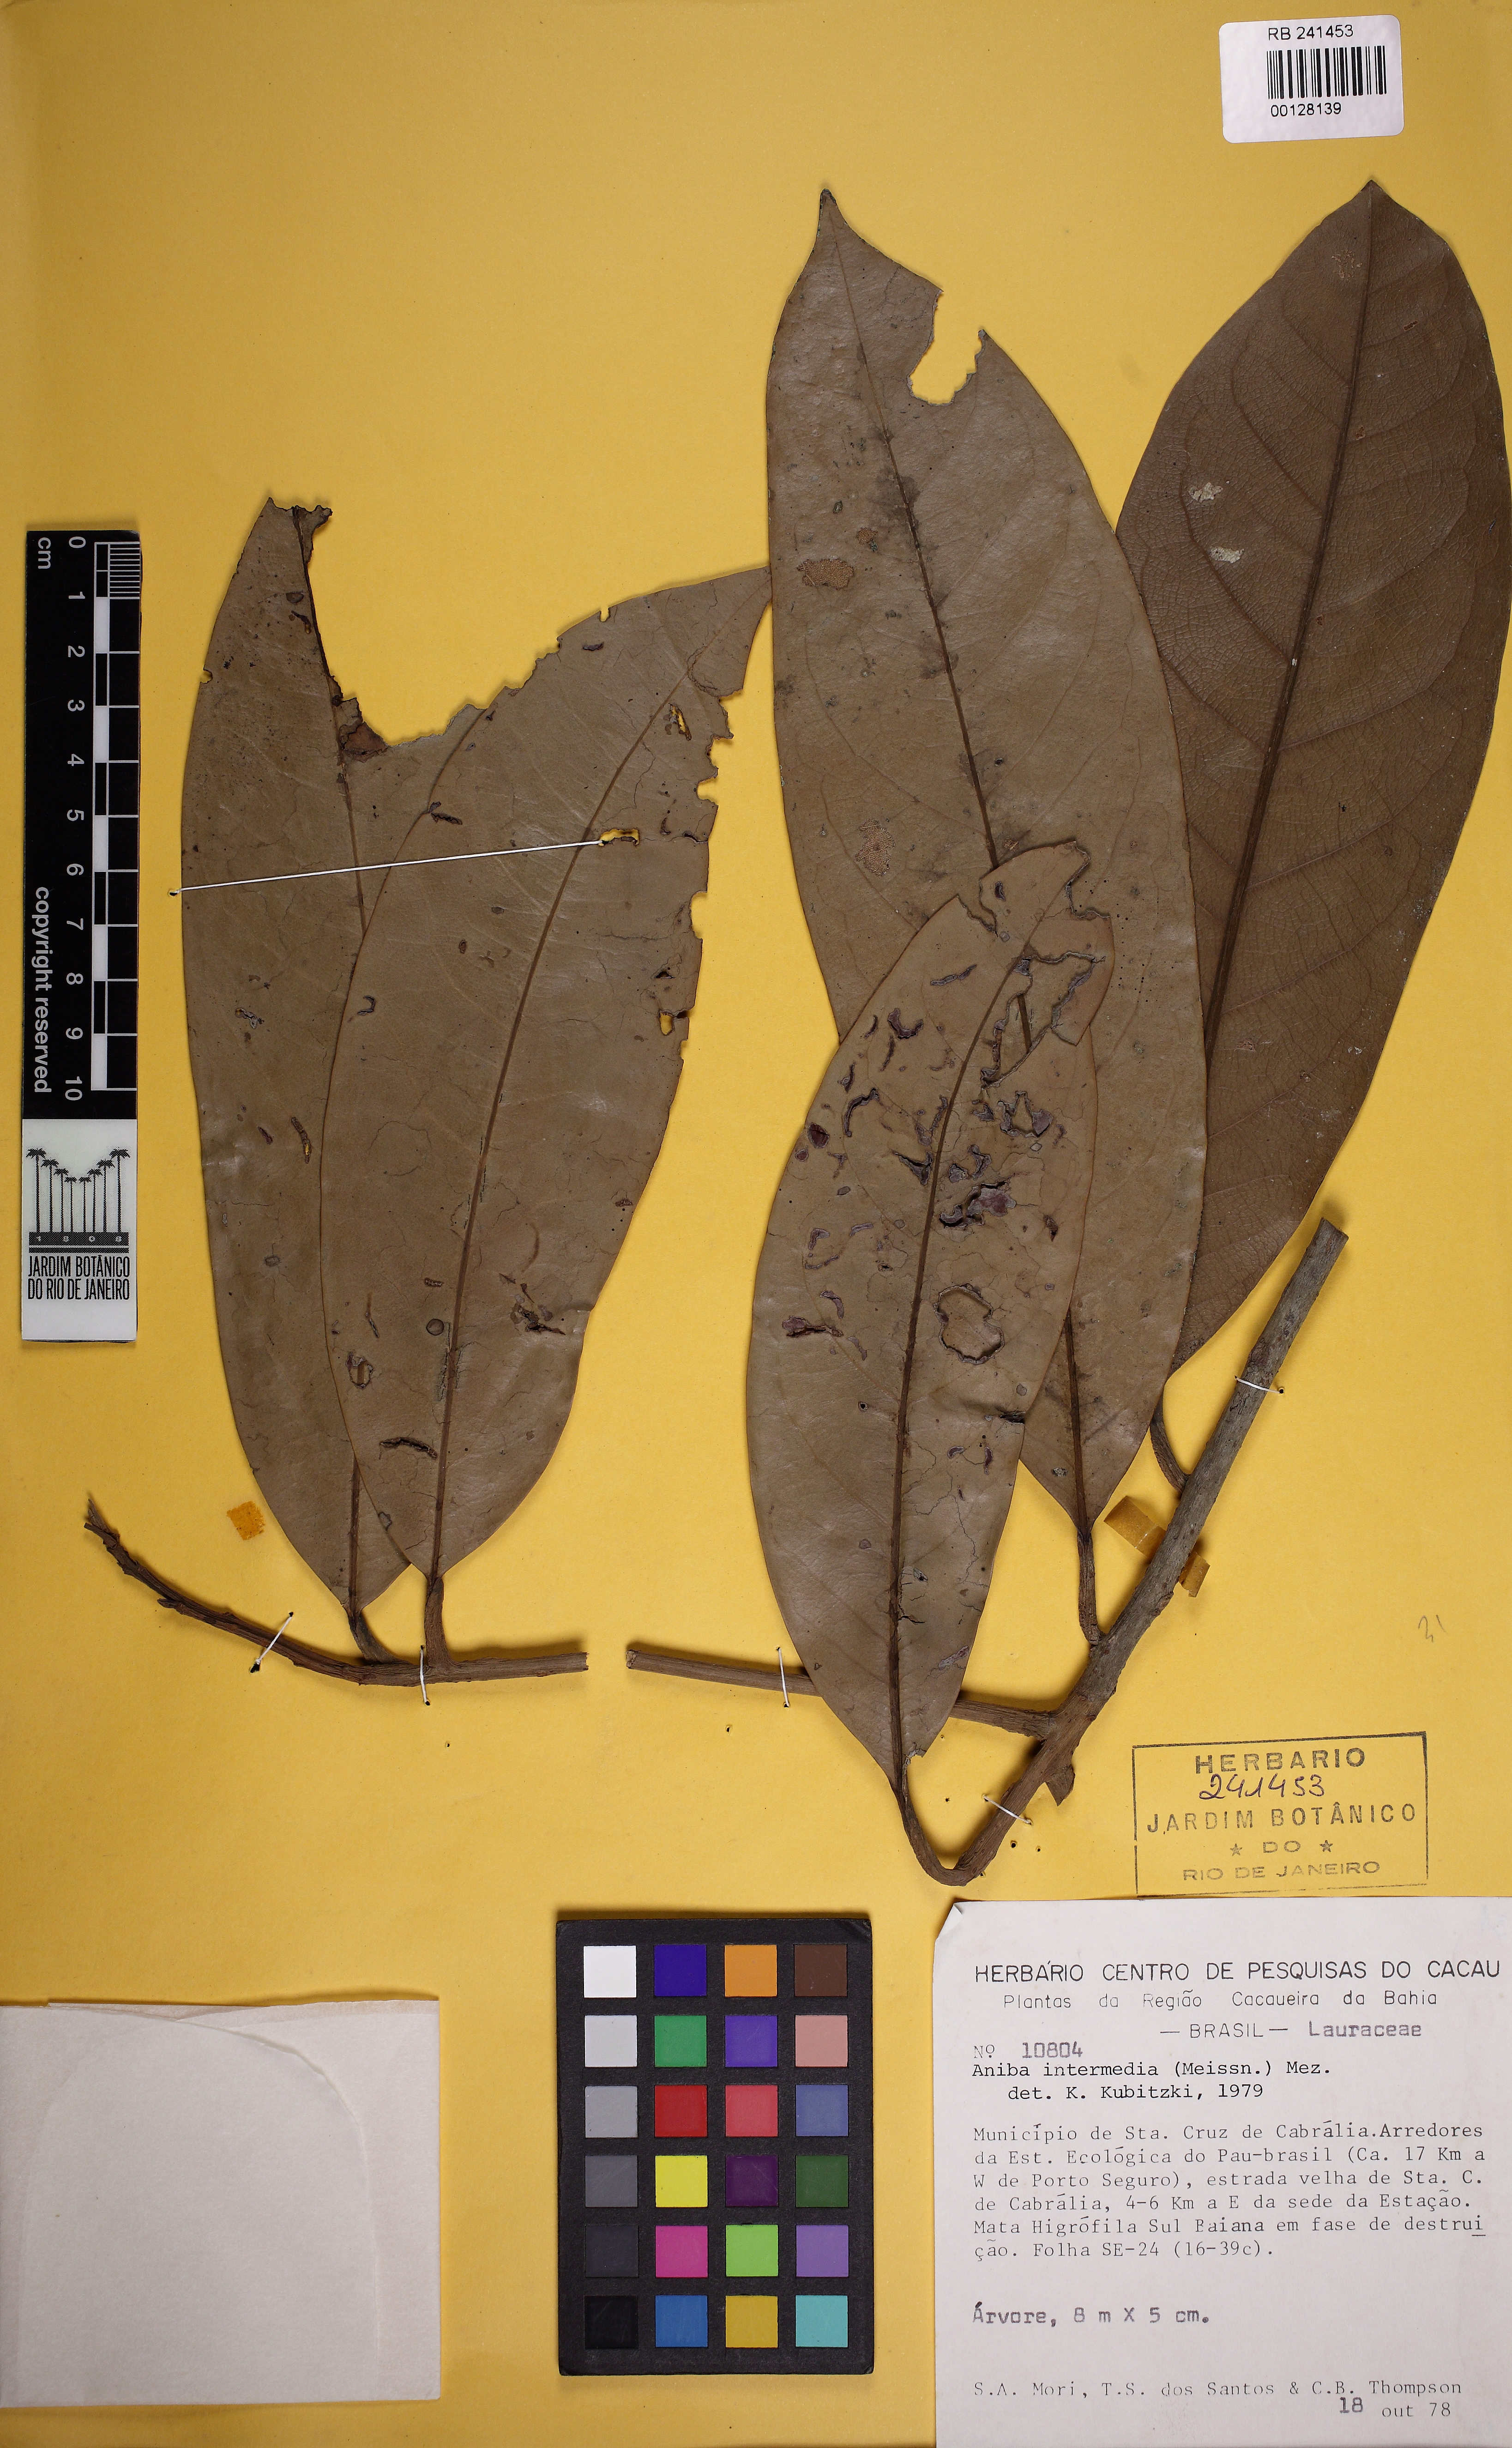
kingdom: Plantae
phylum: Tracheophyta
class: Magnoliopsida
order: Laurales
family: Lauraceae
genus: Aniba
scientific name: Aniba intermedia
